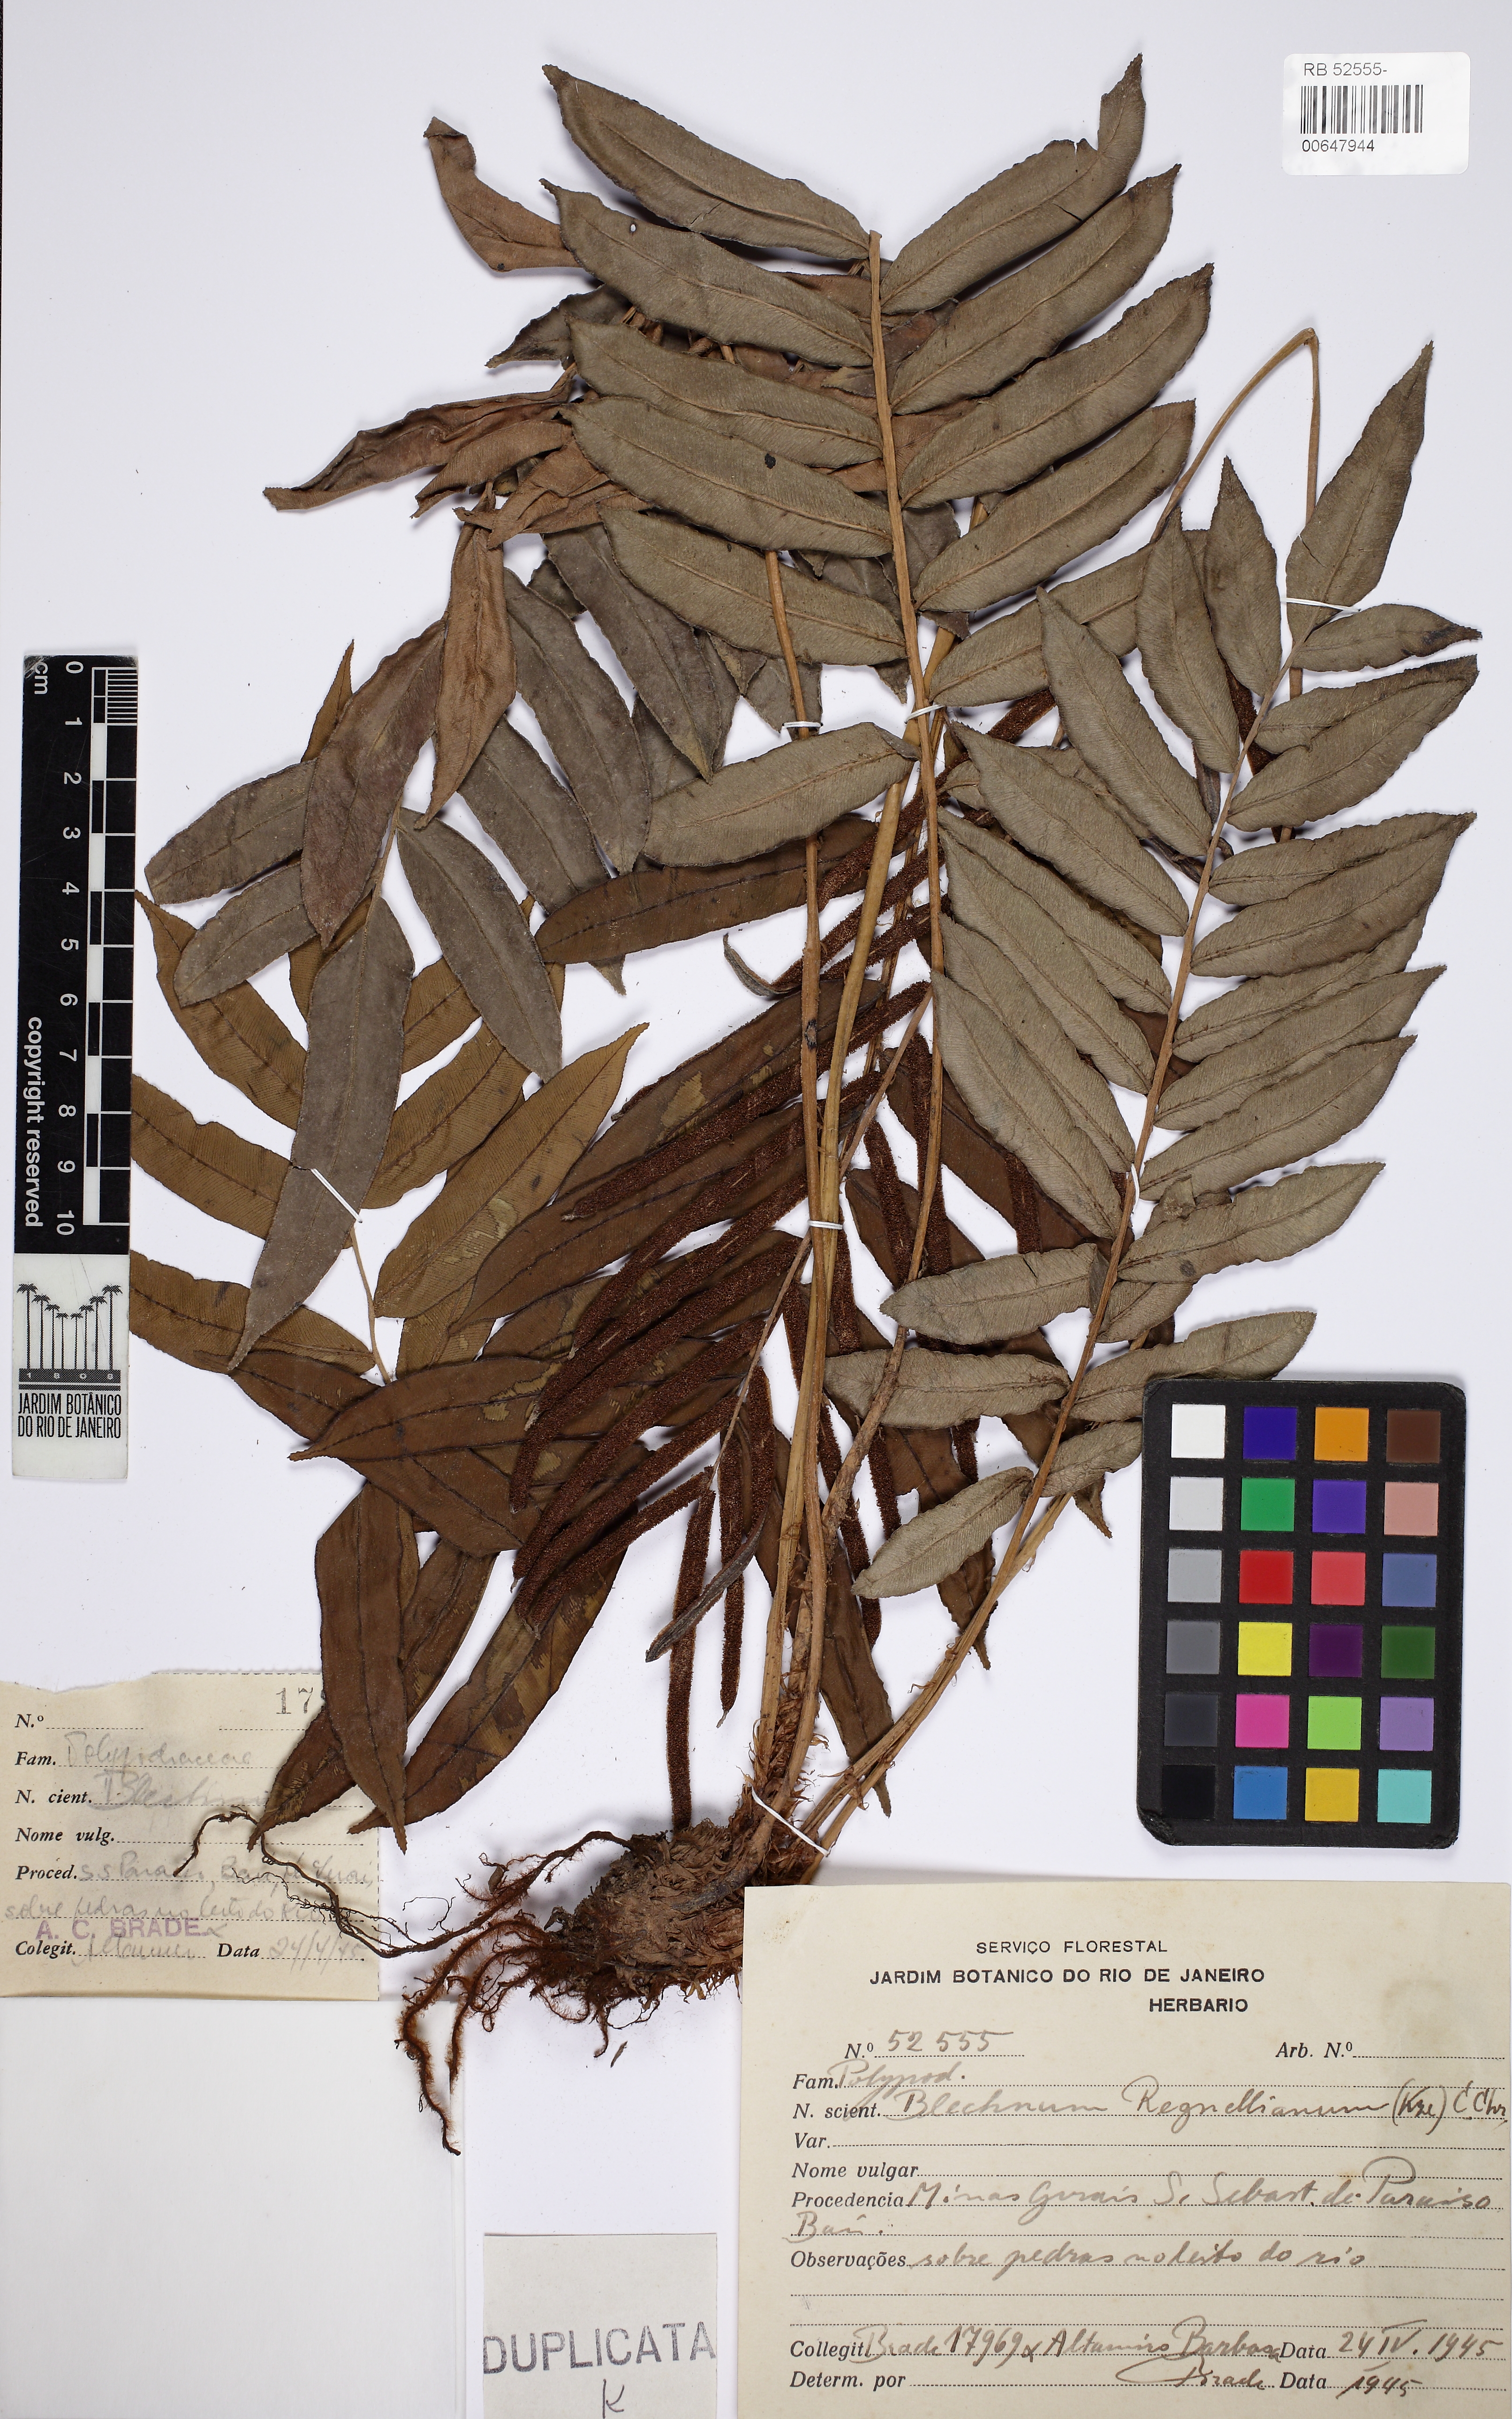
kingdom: Plantae
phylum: Tracheophyta
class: Polypodiopsida
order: Polypodiales
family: Blechnaceae
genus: Parablechnum
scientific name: Parablechnum cordatum
